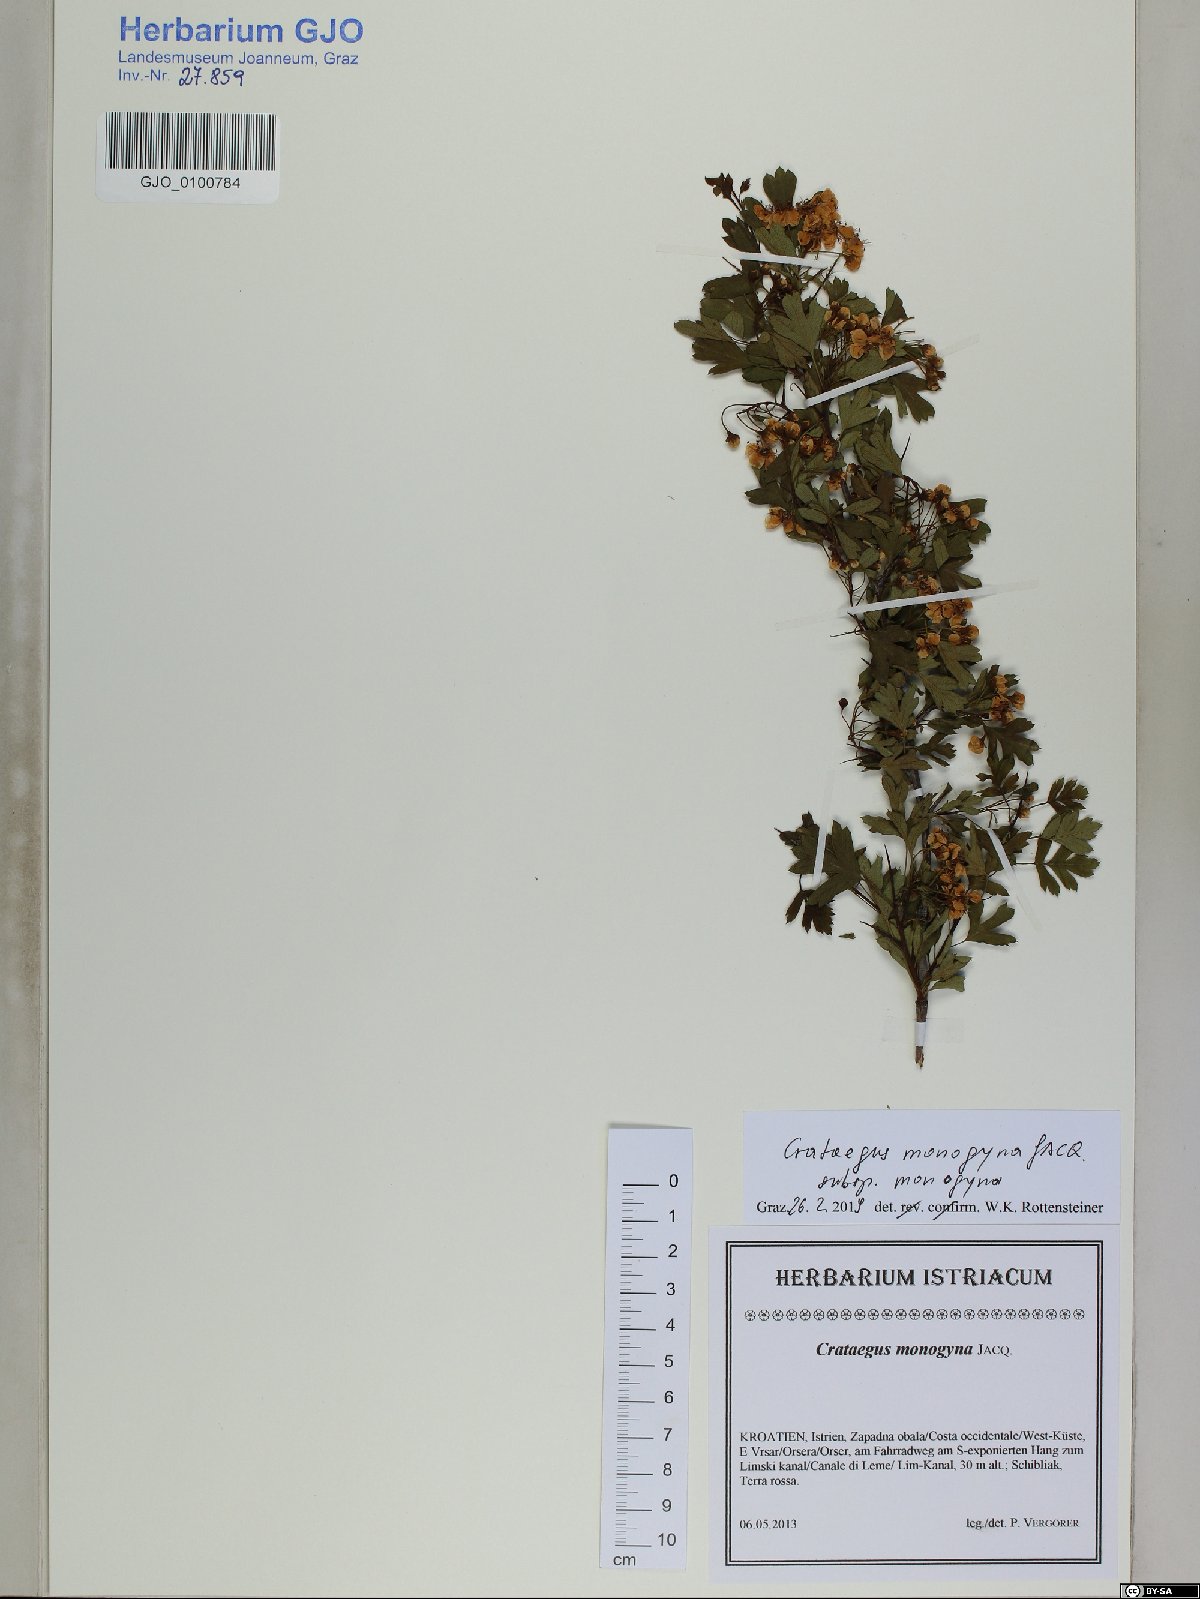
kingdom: Plantae
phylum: Tracheophyta
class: Magnoliopsida
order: Rosales
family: Rosaceae
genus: Crataegus
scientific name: Crataegus monogyna
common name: Hawthorn
